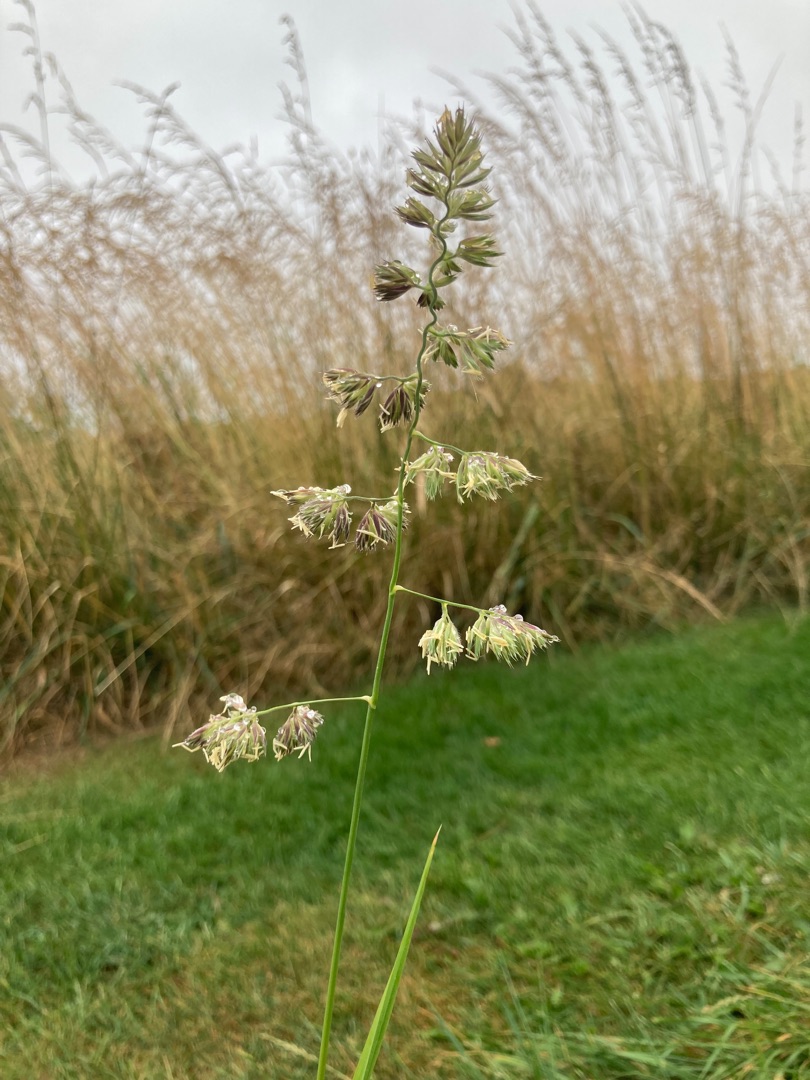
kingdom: Plantae
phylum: Tracheophyta
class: Liliopsida
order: Poales
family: Poaceae
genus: Dactylis
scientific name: Dactylis glomerata
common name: Almindelig hundegræs
